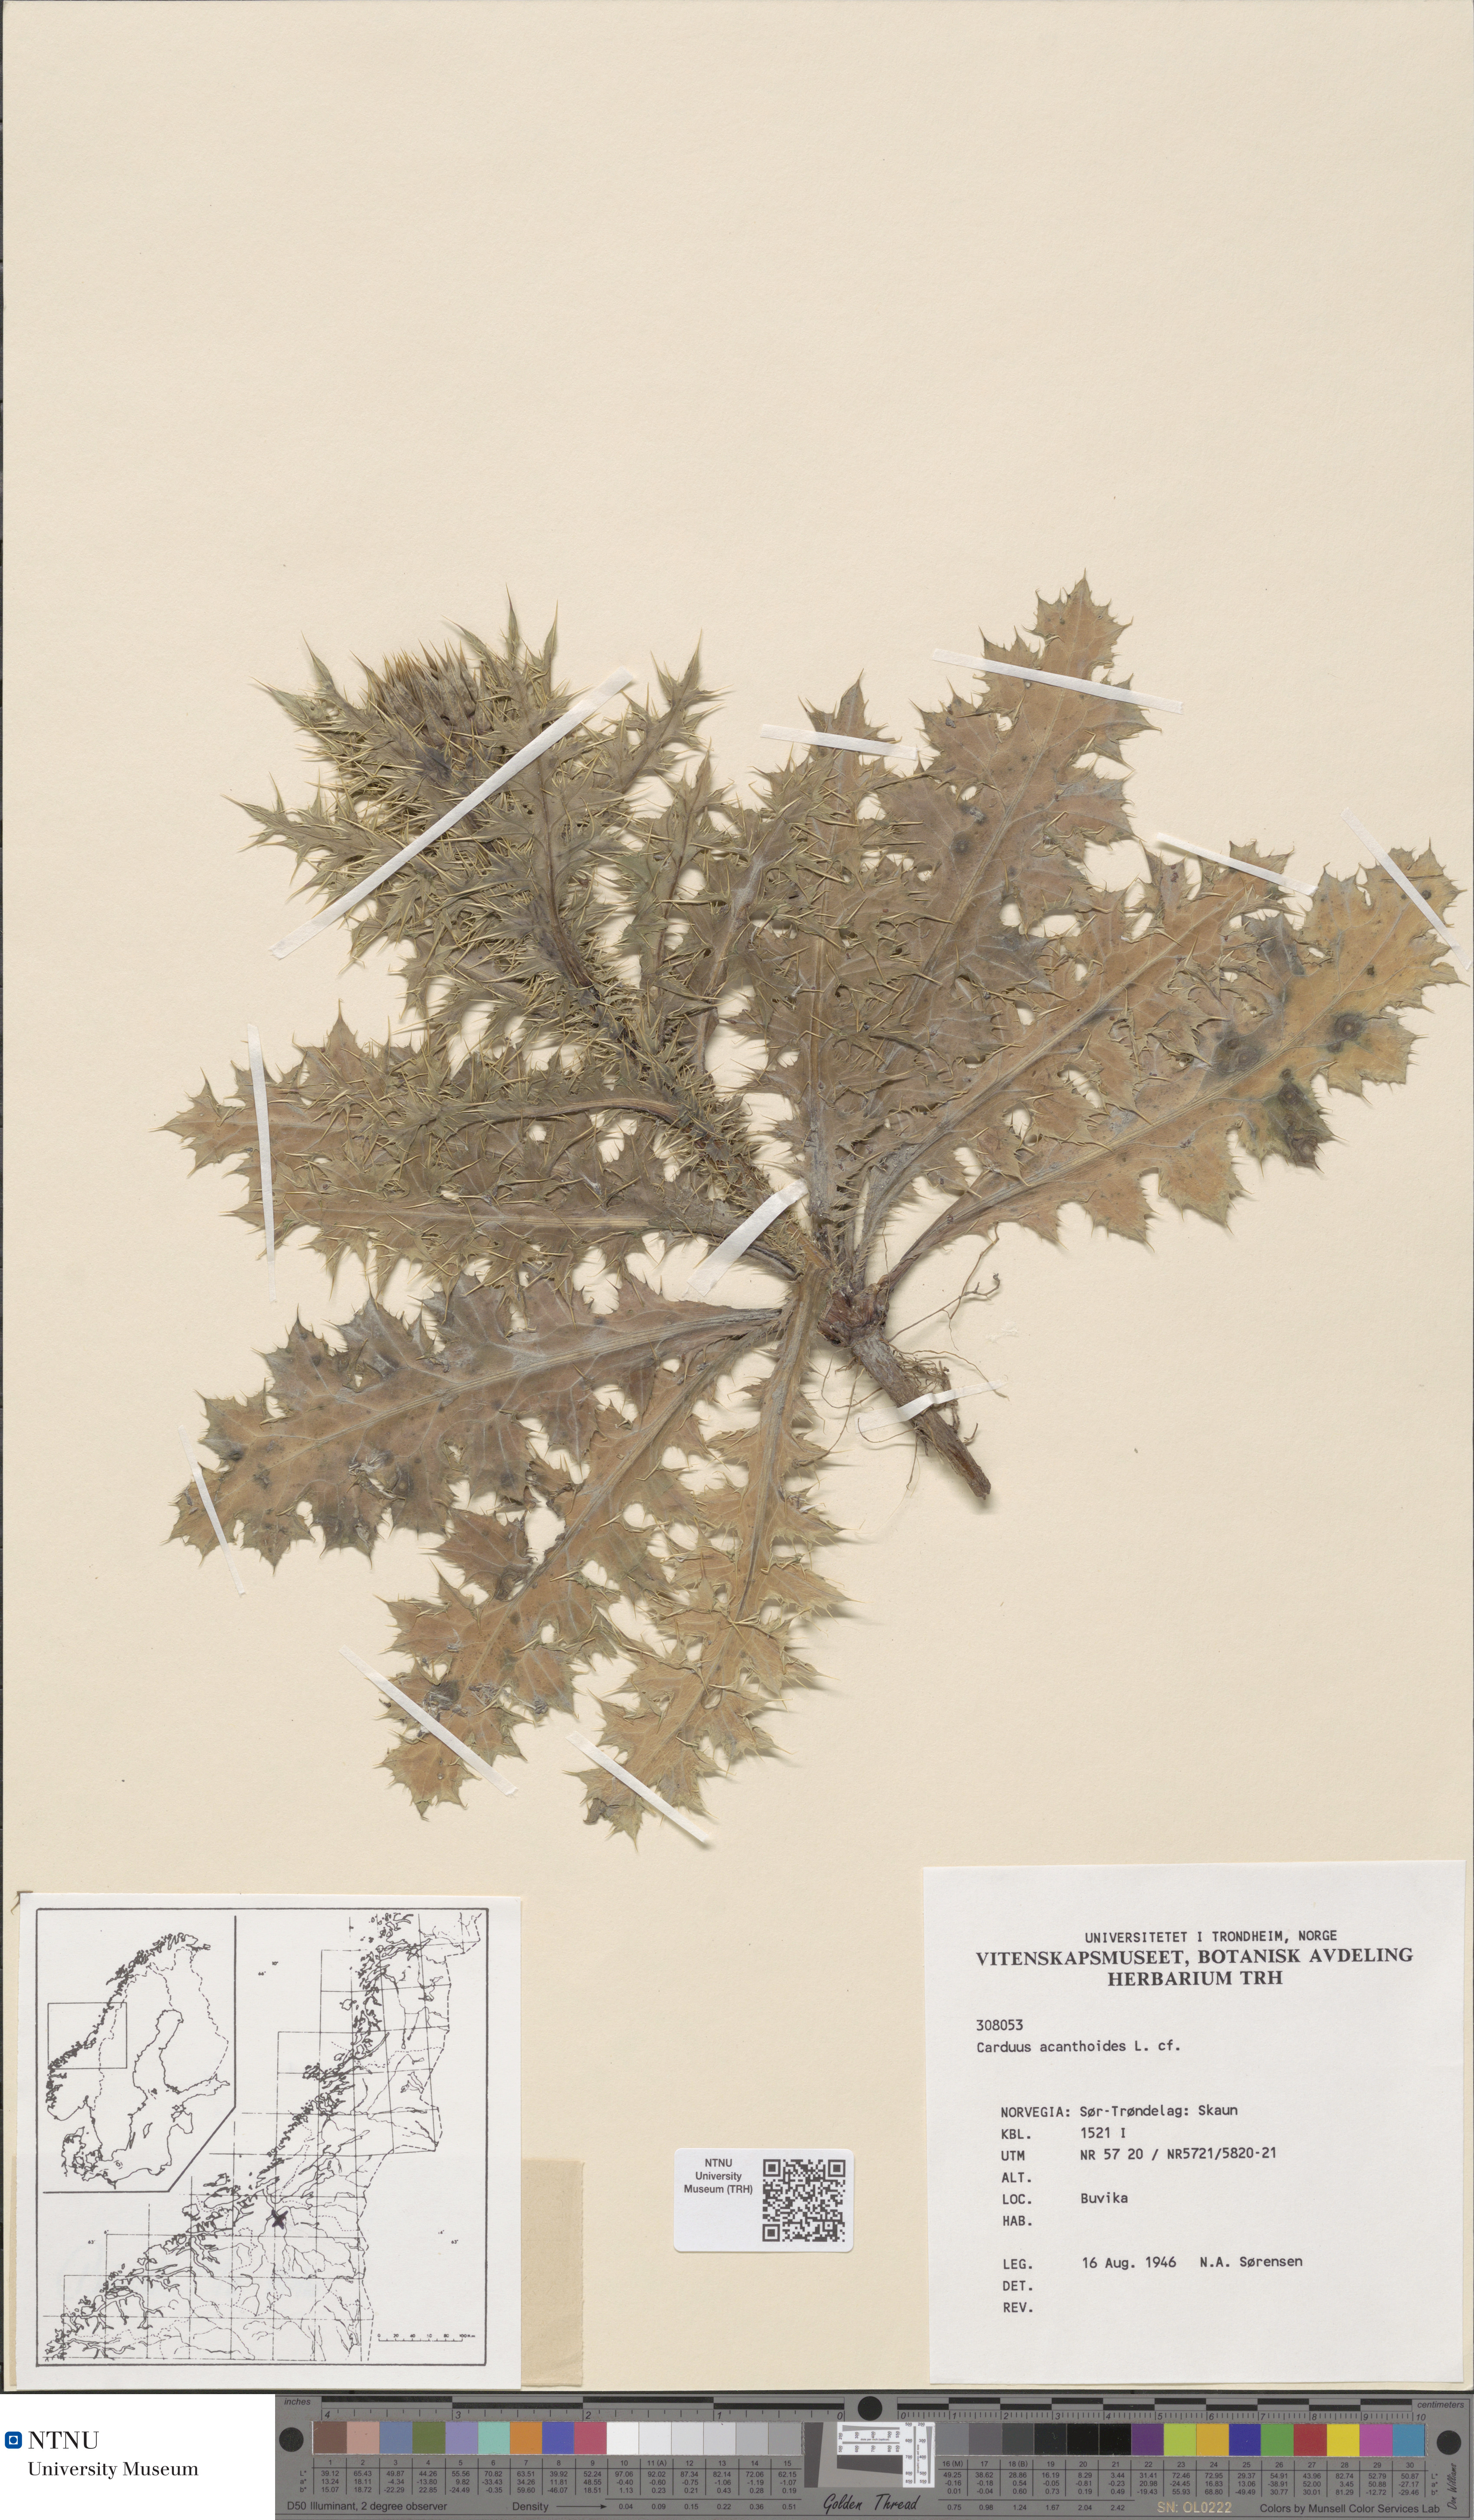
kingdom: Plantae
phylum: Tracheophyta
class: Magnoliopsida
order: Asterales
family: Asteraceae
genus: Carduus
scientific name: Carduus acanthoides
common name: Plumeless thistle
